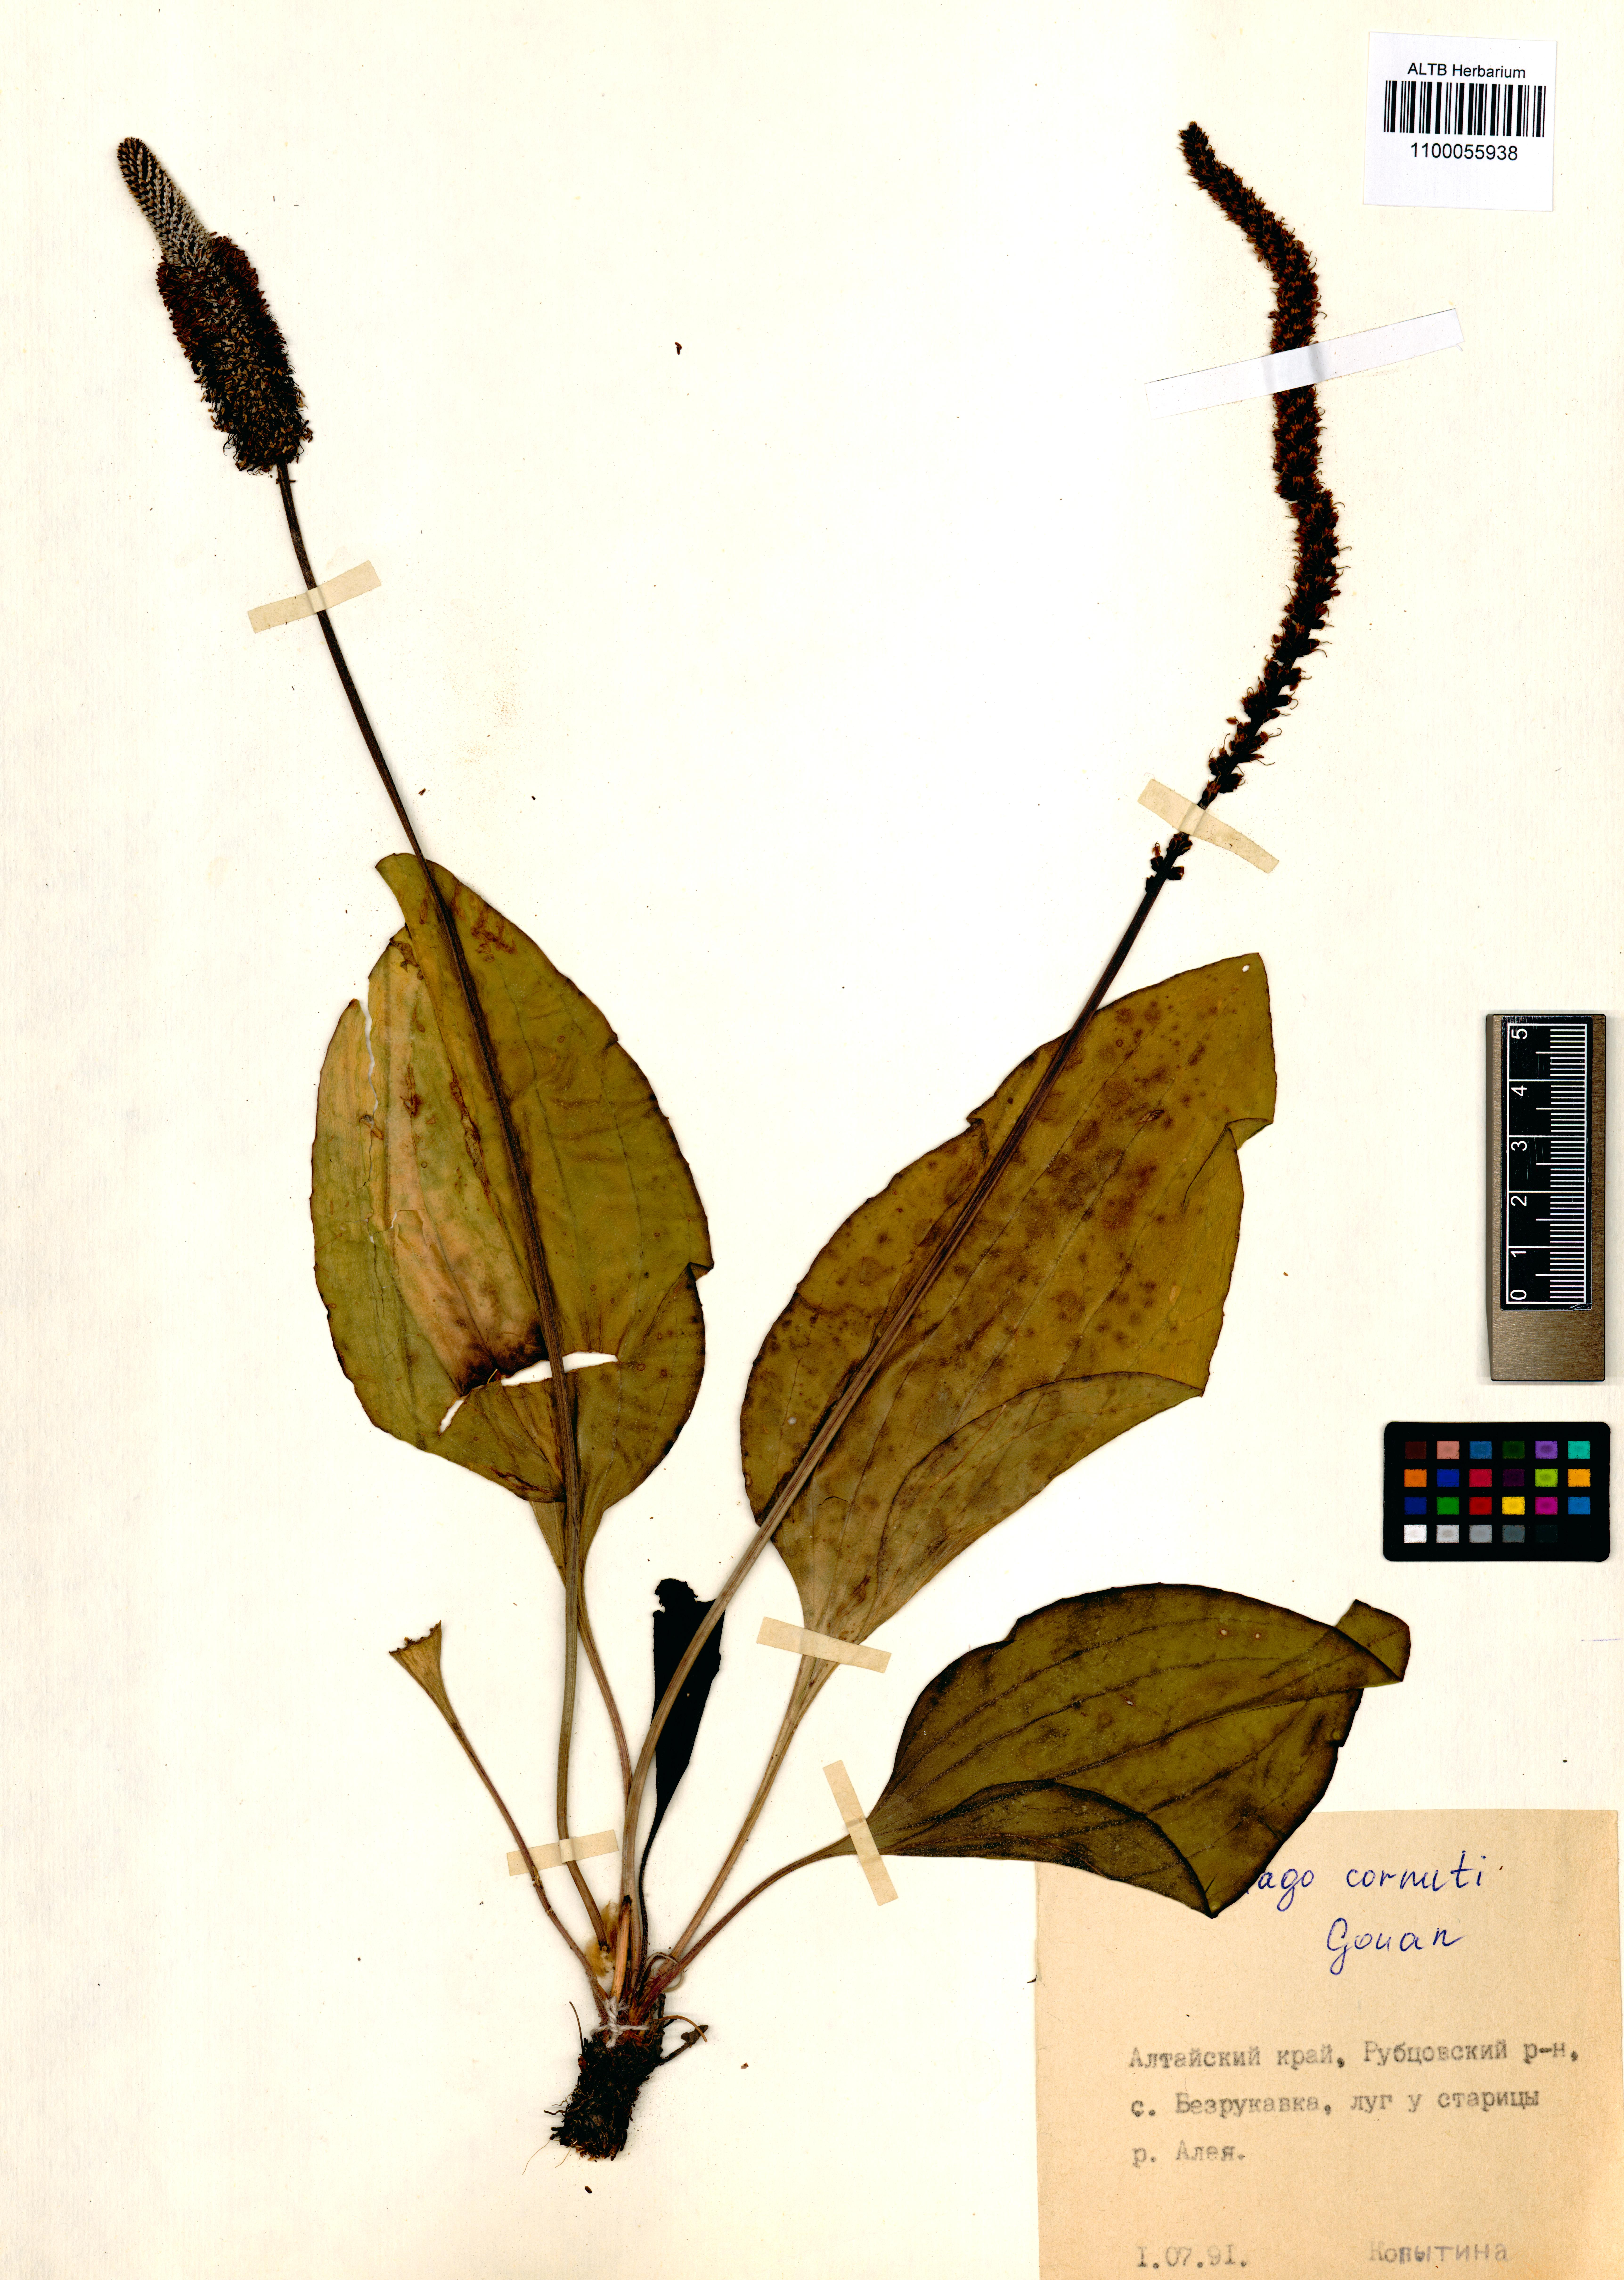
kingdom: Plantae
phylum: Tracheophyta
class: Magnoliopsida
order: Lamiales
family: Plantaginaceae
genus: Plantago
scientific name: Plantago cornuti
